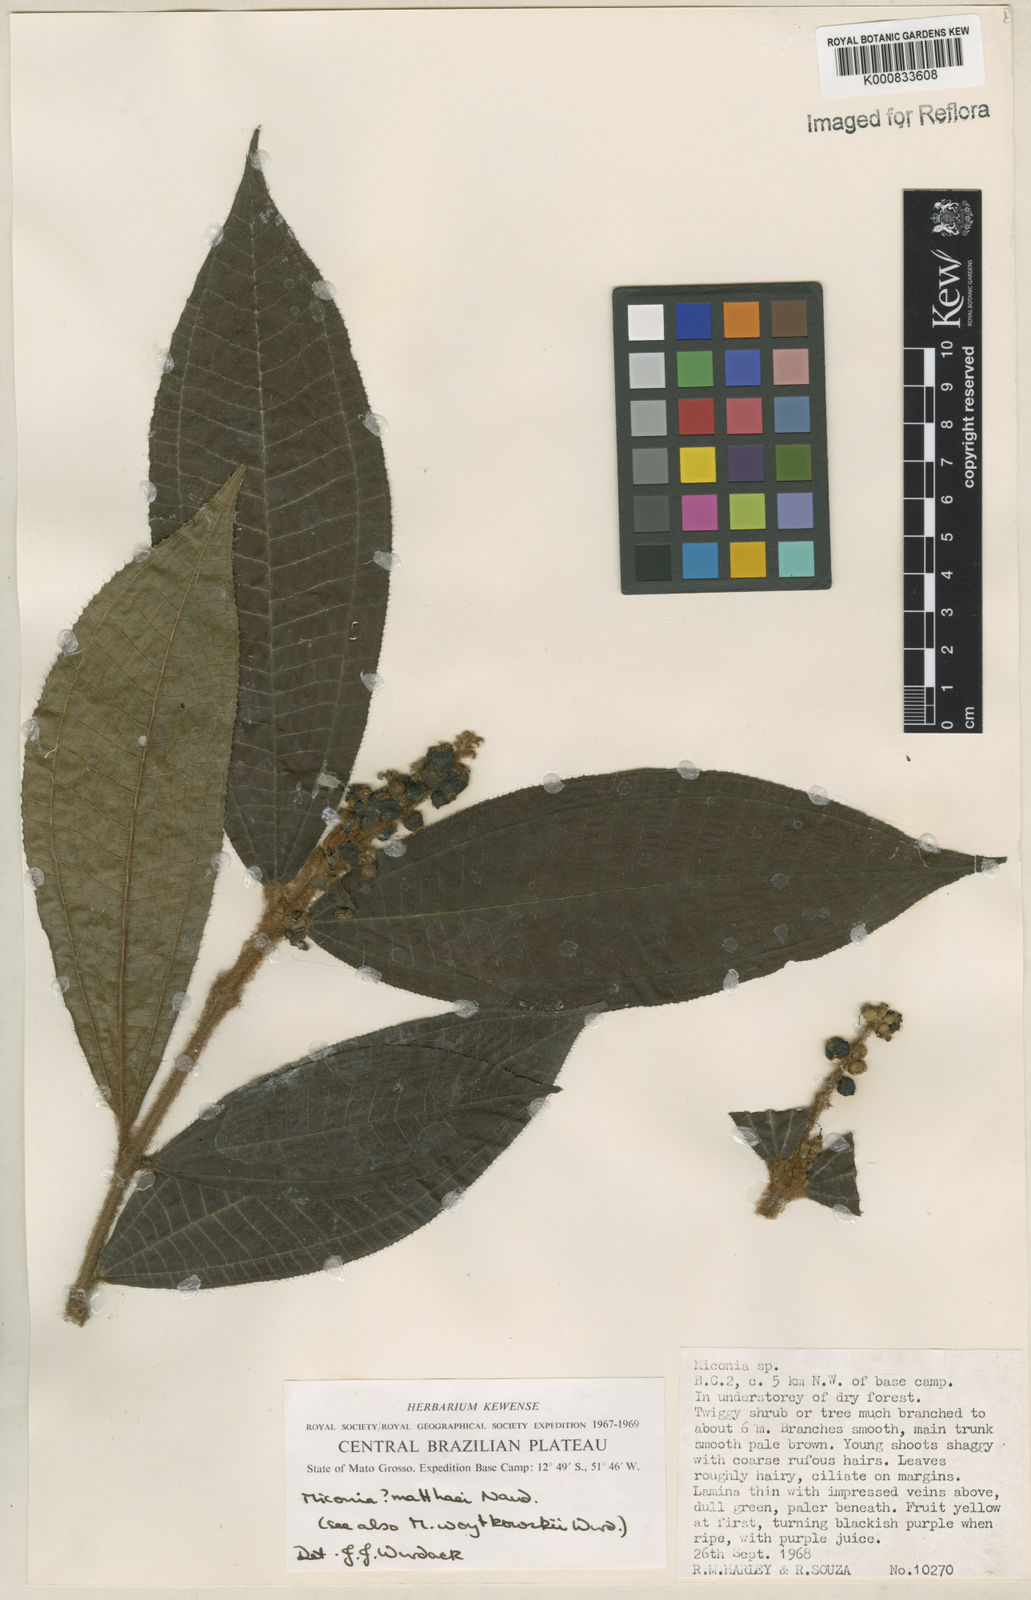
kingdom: Plantae
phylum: Tracheophyta
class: Magnoliopsida
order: Myrtales
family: Melastomataceae
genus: Miconia
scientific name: Miconia matthaei
